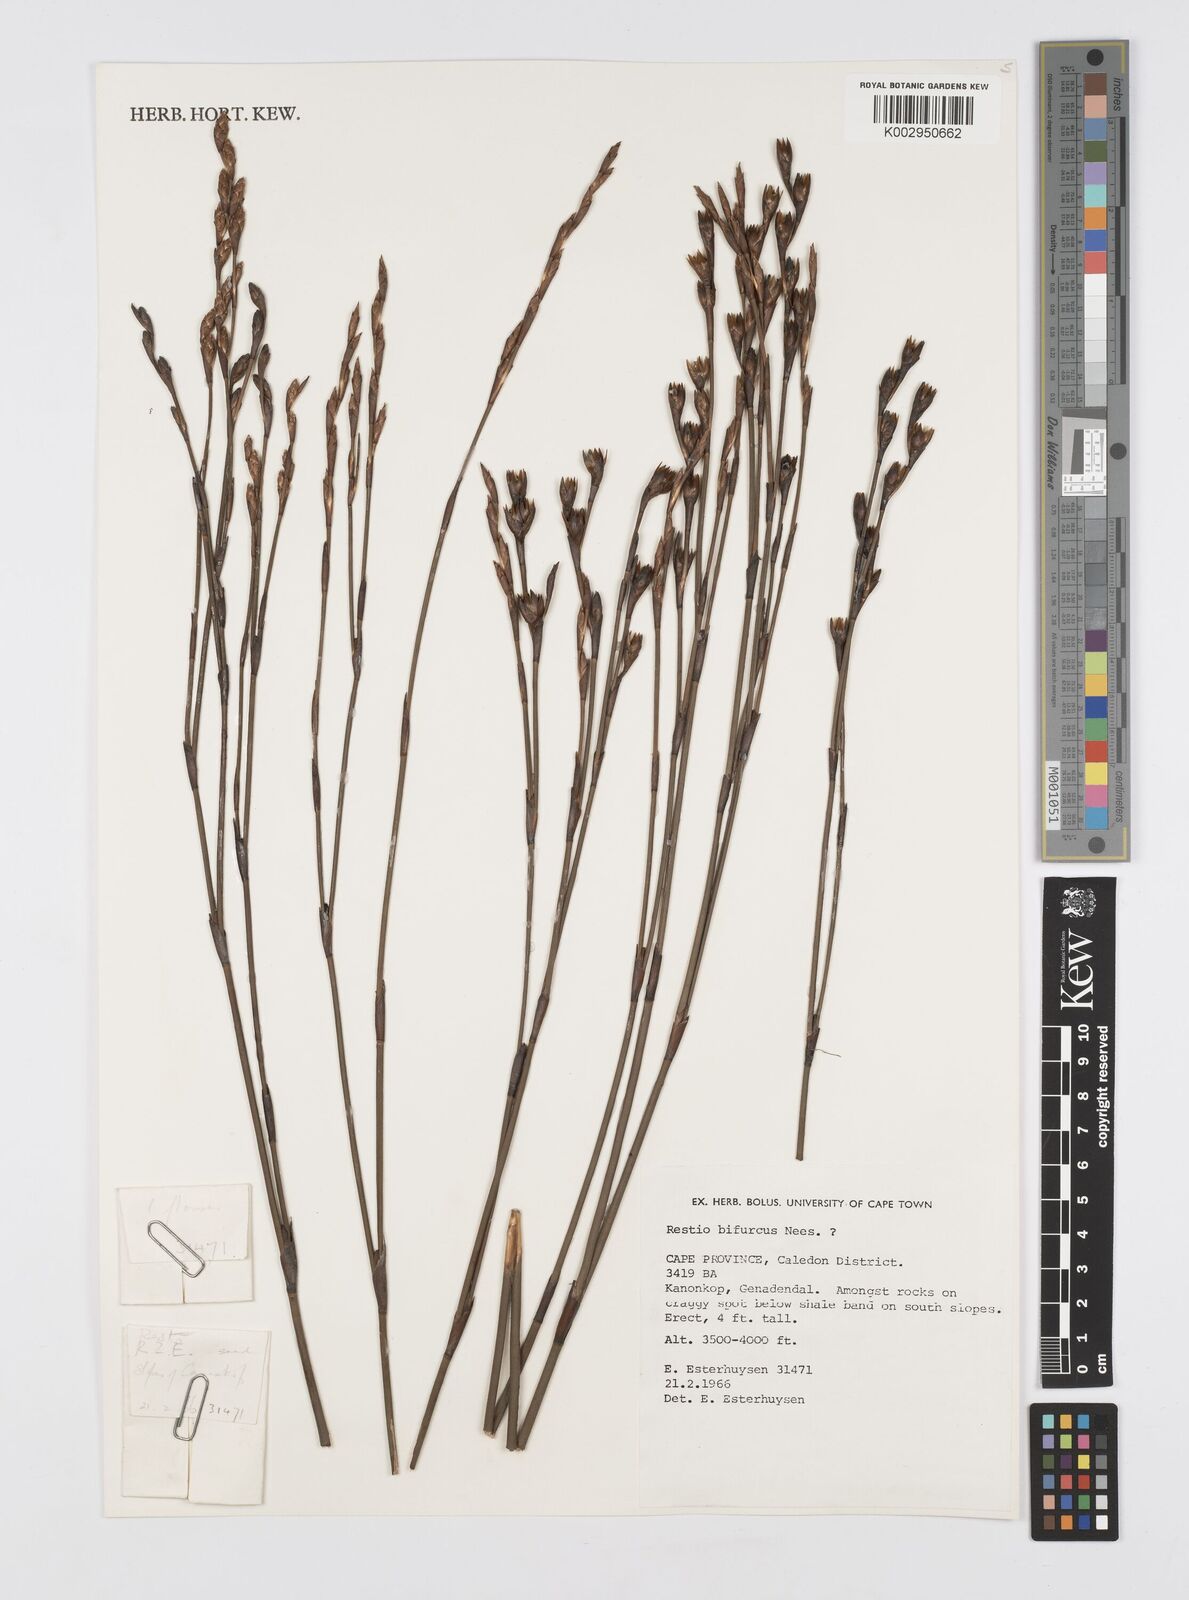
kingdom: Plantae
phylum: Tracheophyta
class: Liliopsida
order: Poales
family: Restionaceae
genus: Restio
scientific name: Restio bifurcus
